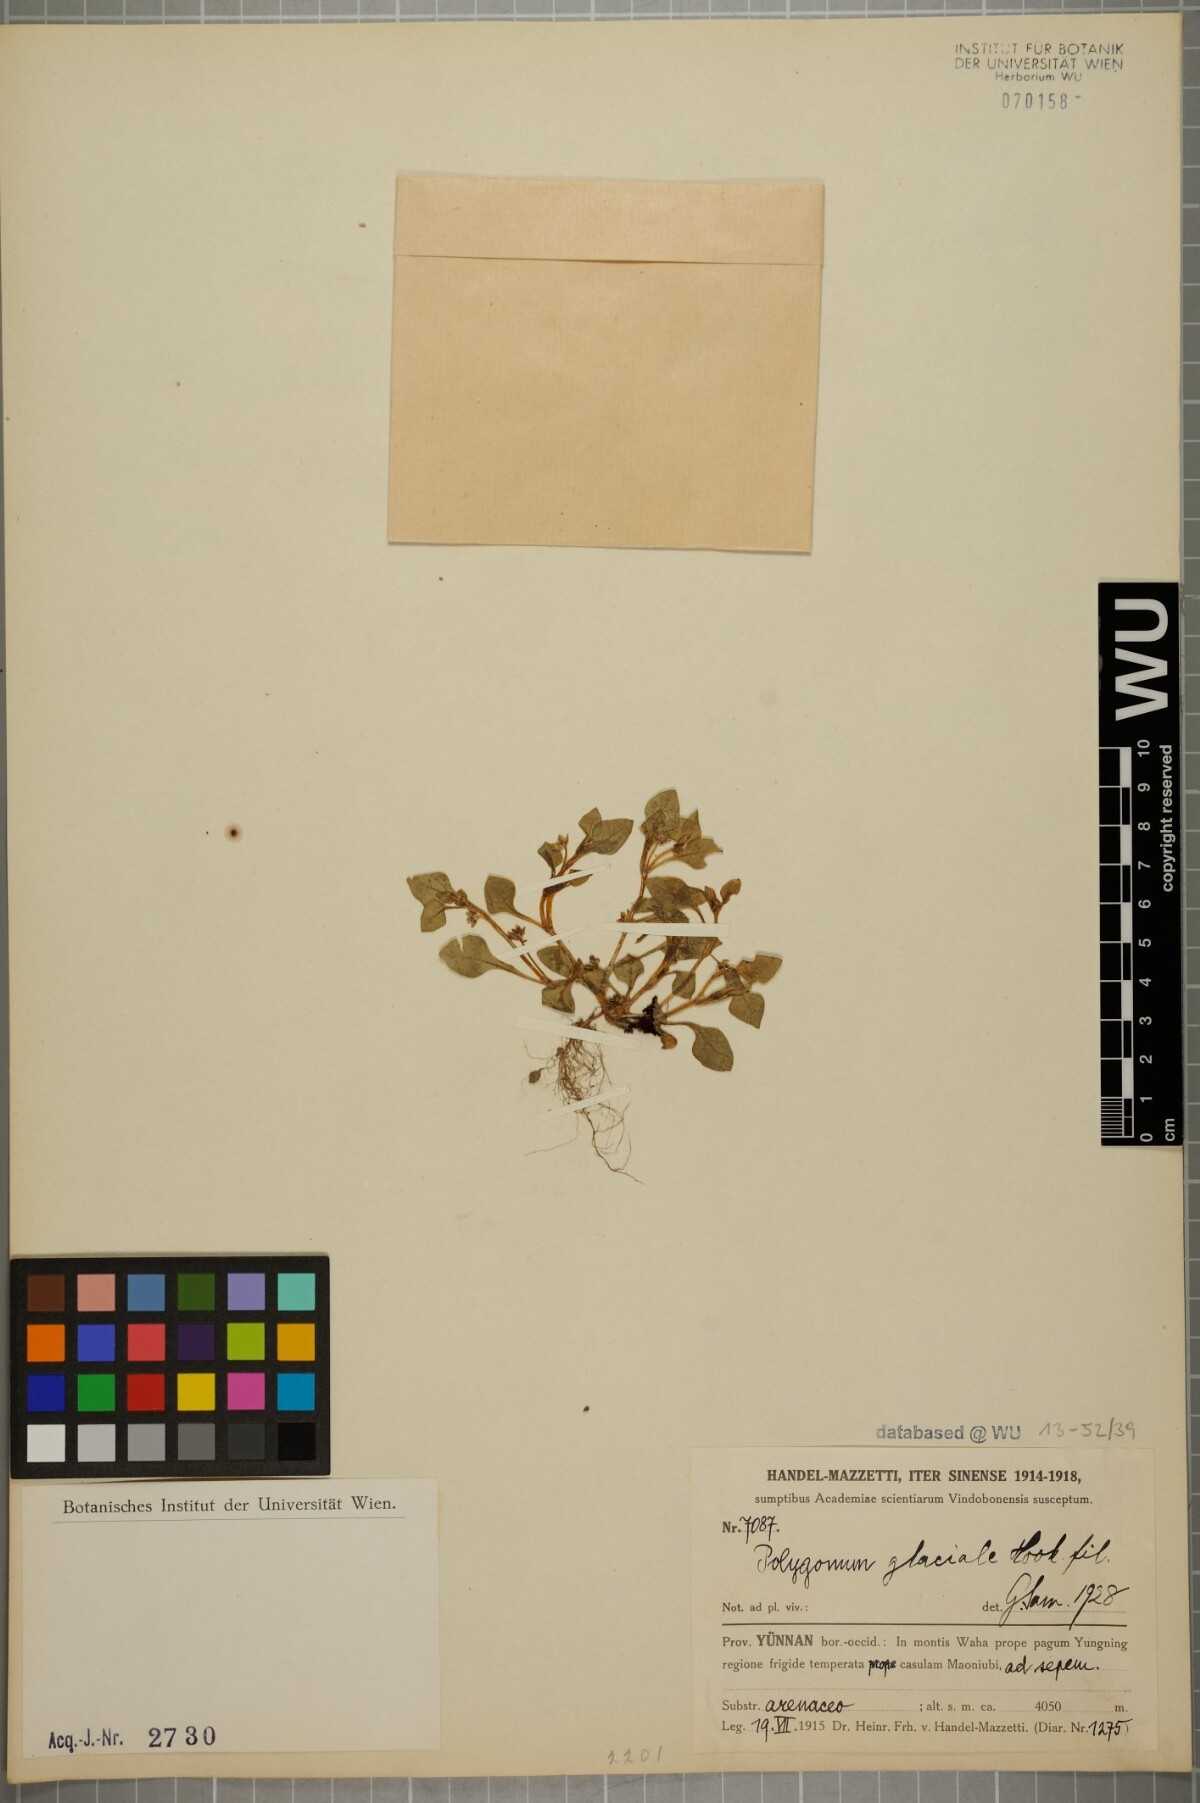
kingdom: Plantae
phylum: Tracheophyta
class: Magnoliopsida
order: Caryophyllales
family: Polygonaceae
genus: Persicaria
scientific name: Persicaria glacialis
